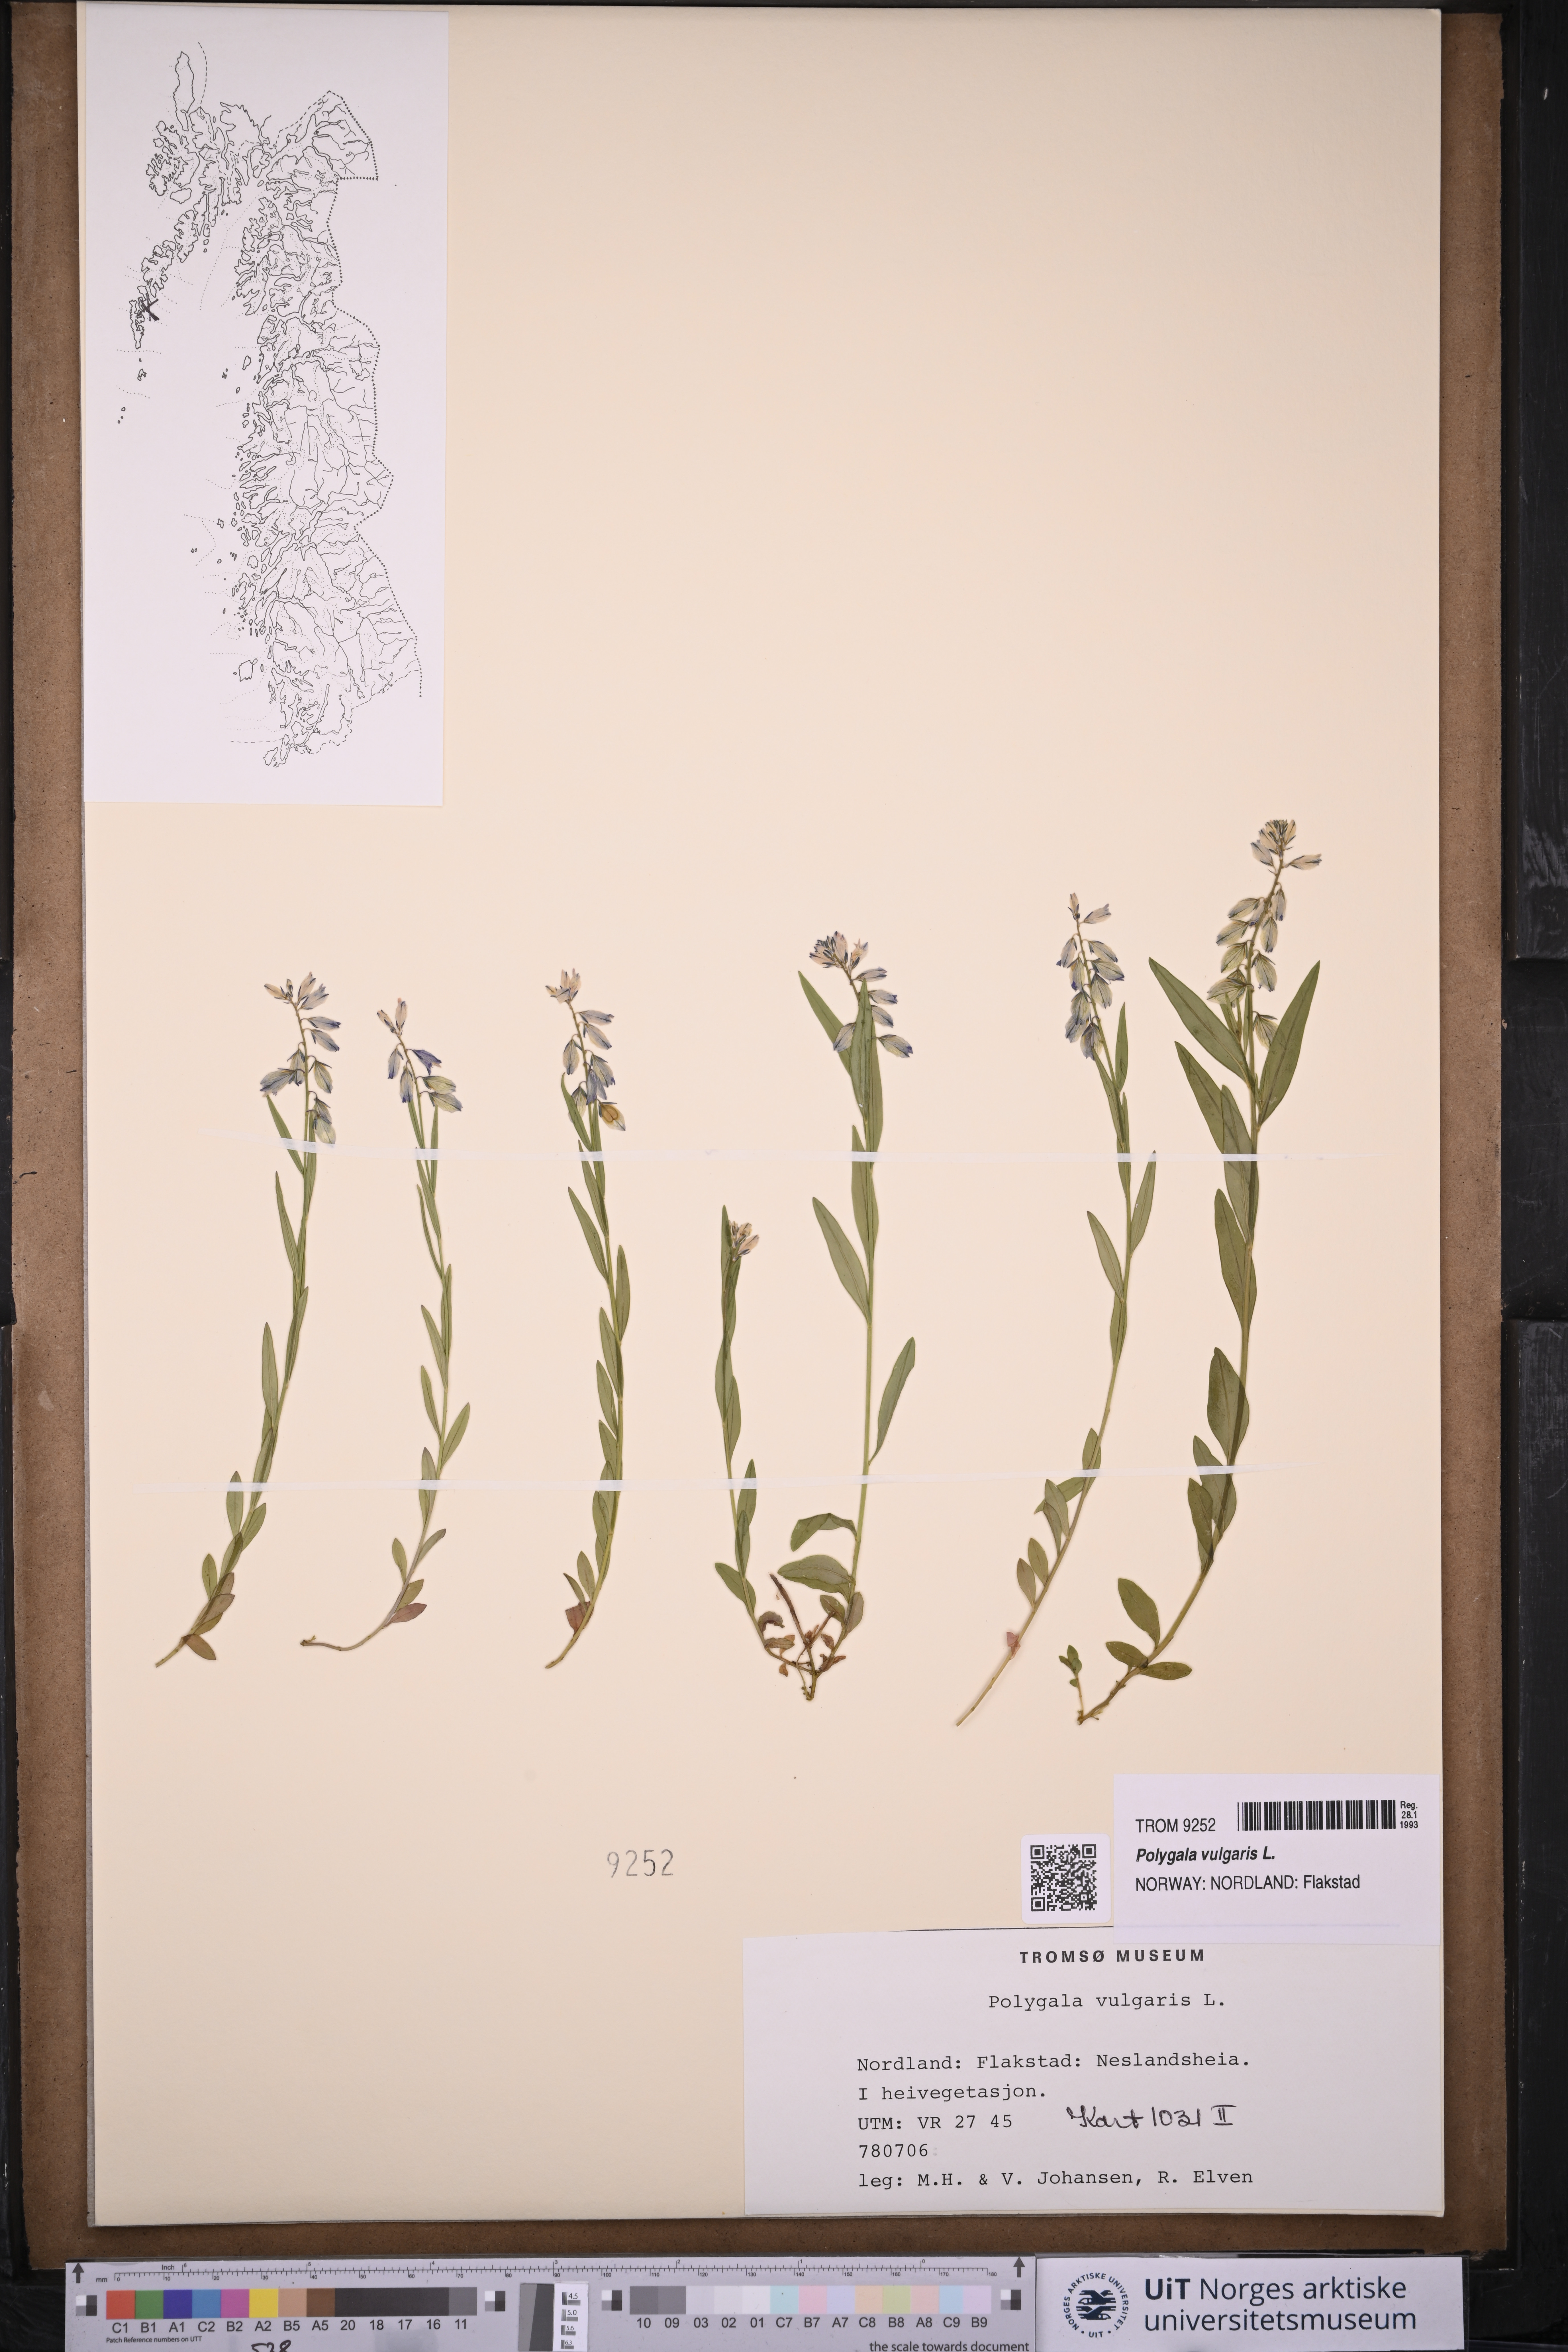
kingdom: Plantae
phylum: Tracheophyta
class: Magnoliopsida
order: Fabales
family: Polygalaceae
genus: Polygala
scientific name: Polygala vulgaris
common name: Common milkwort
